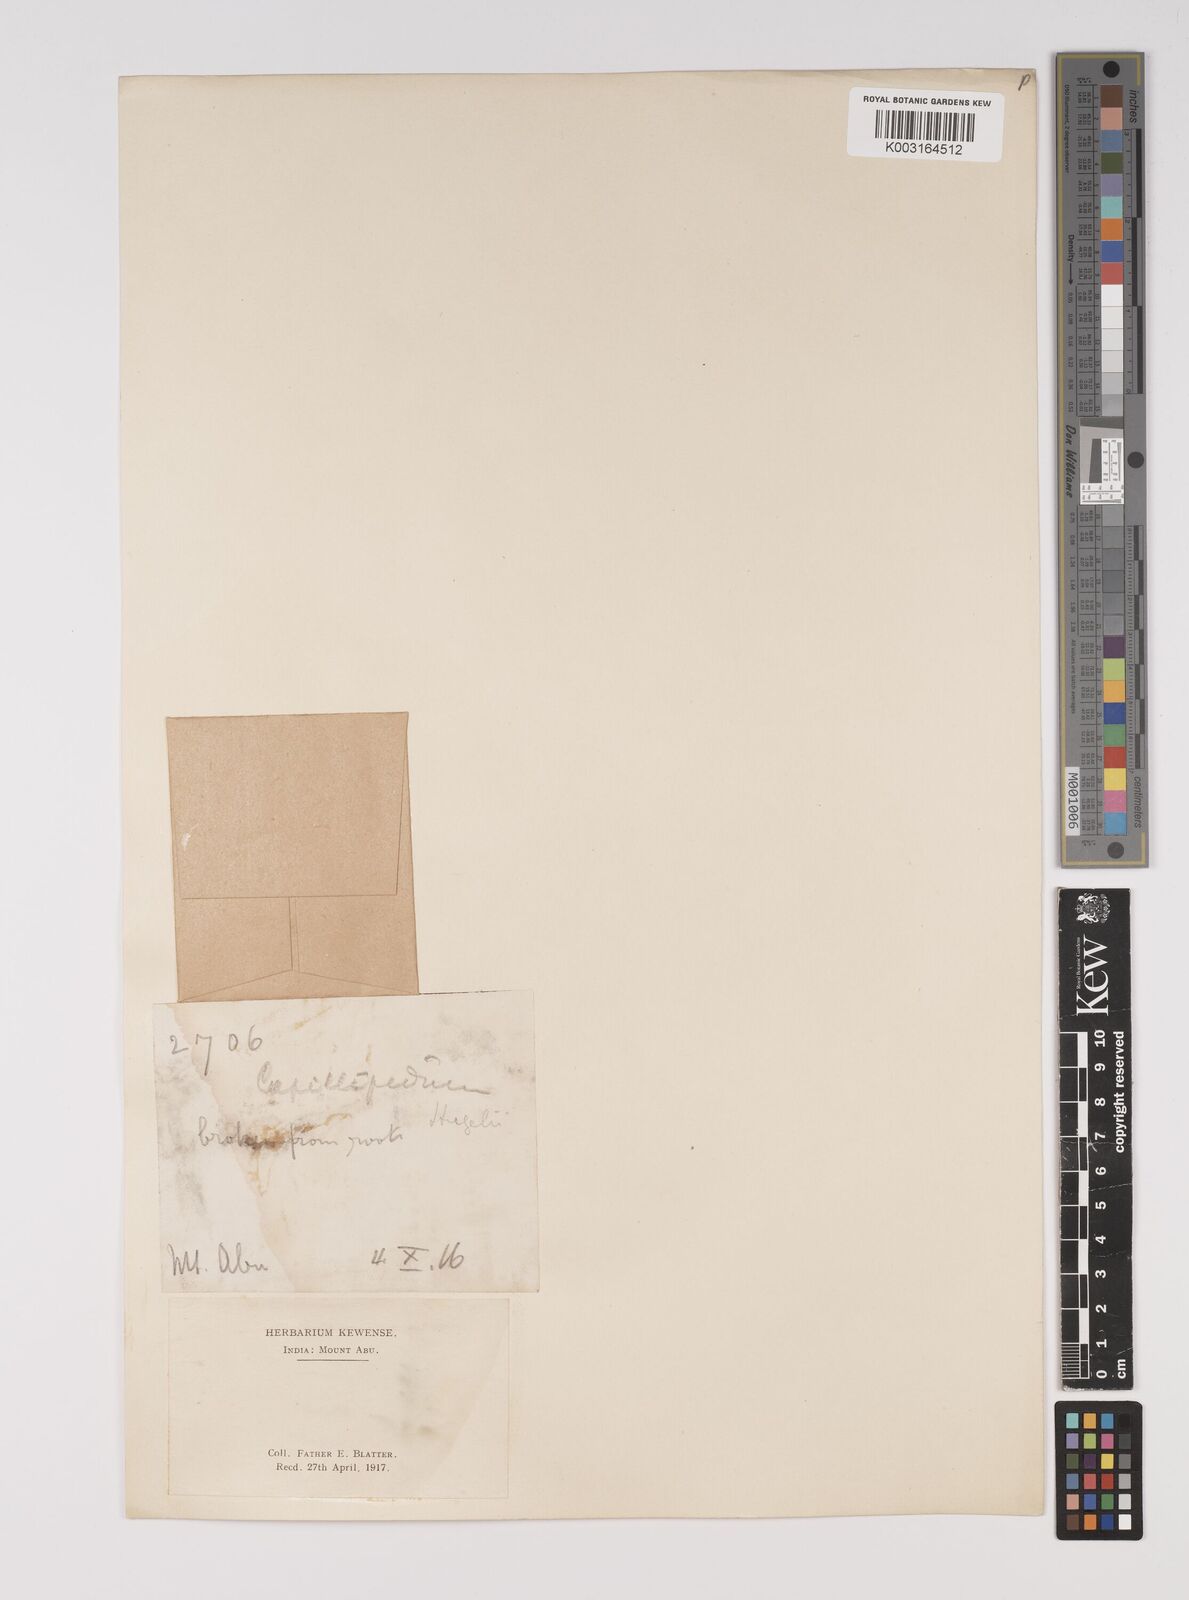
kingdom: Plantae
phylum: Tracheophyta
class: Liliopsida
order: Poales
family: Poaceae
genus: Capillipedium
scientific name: Capillipedium huegelii
